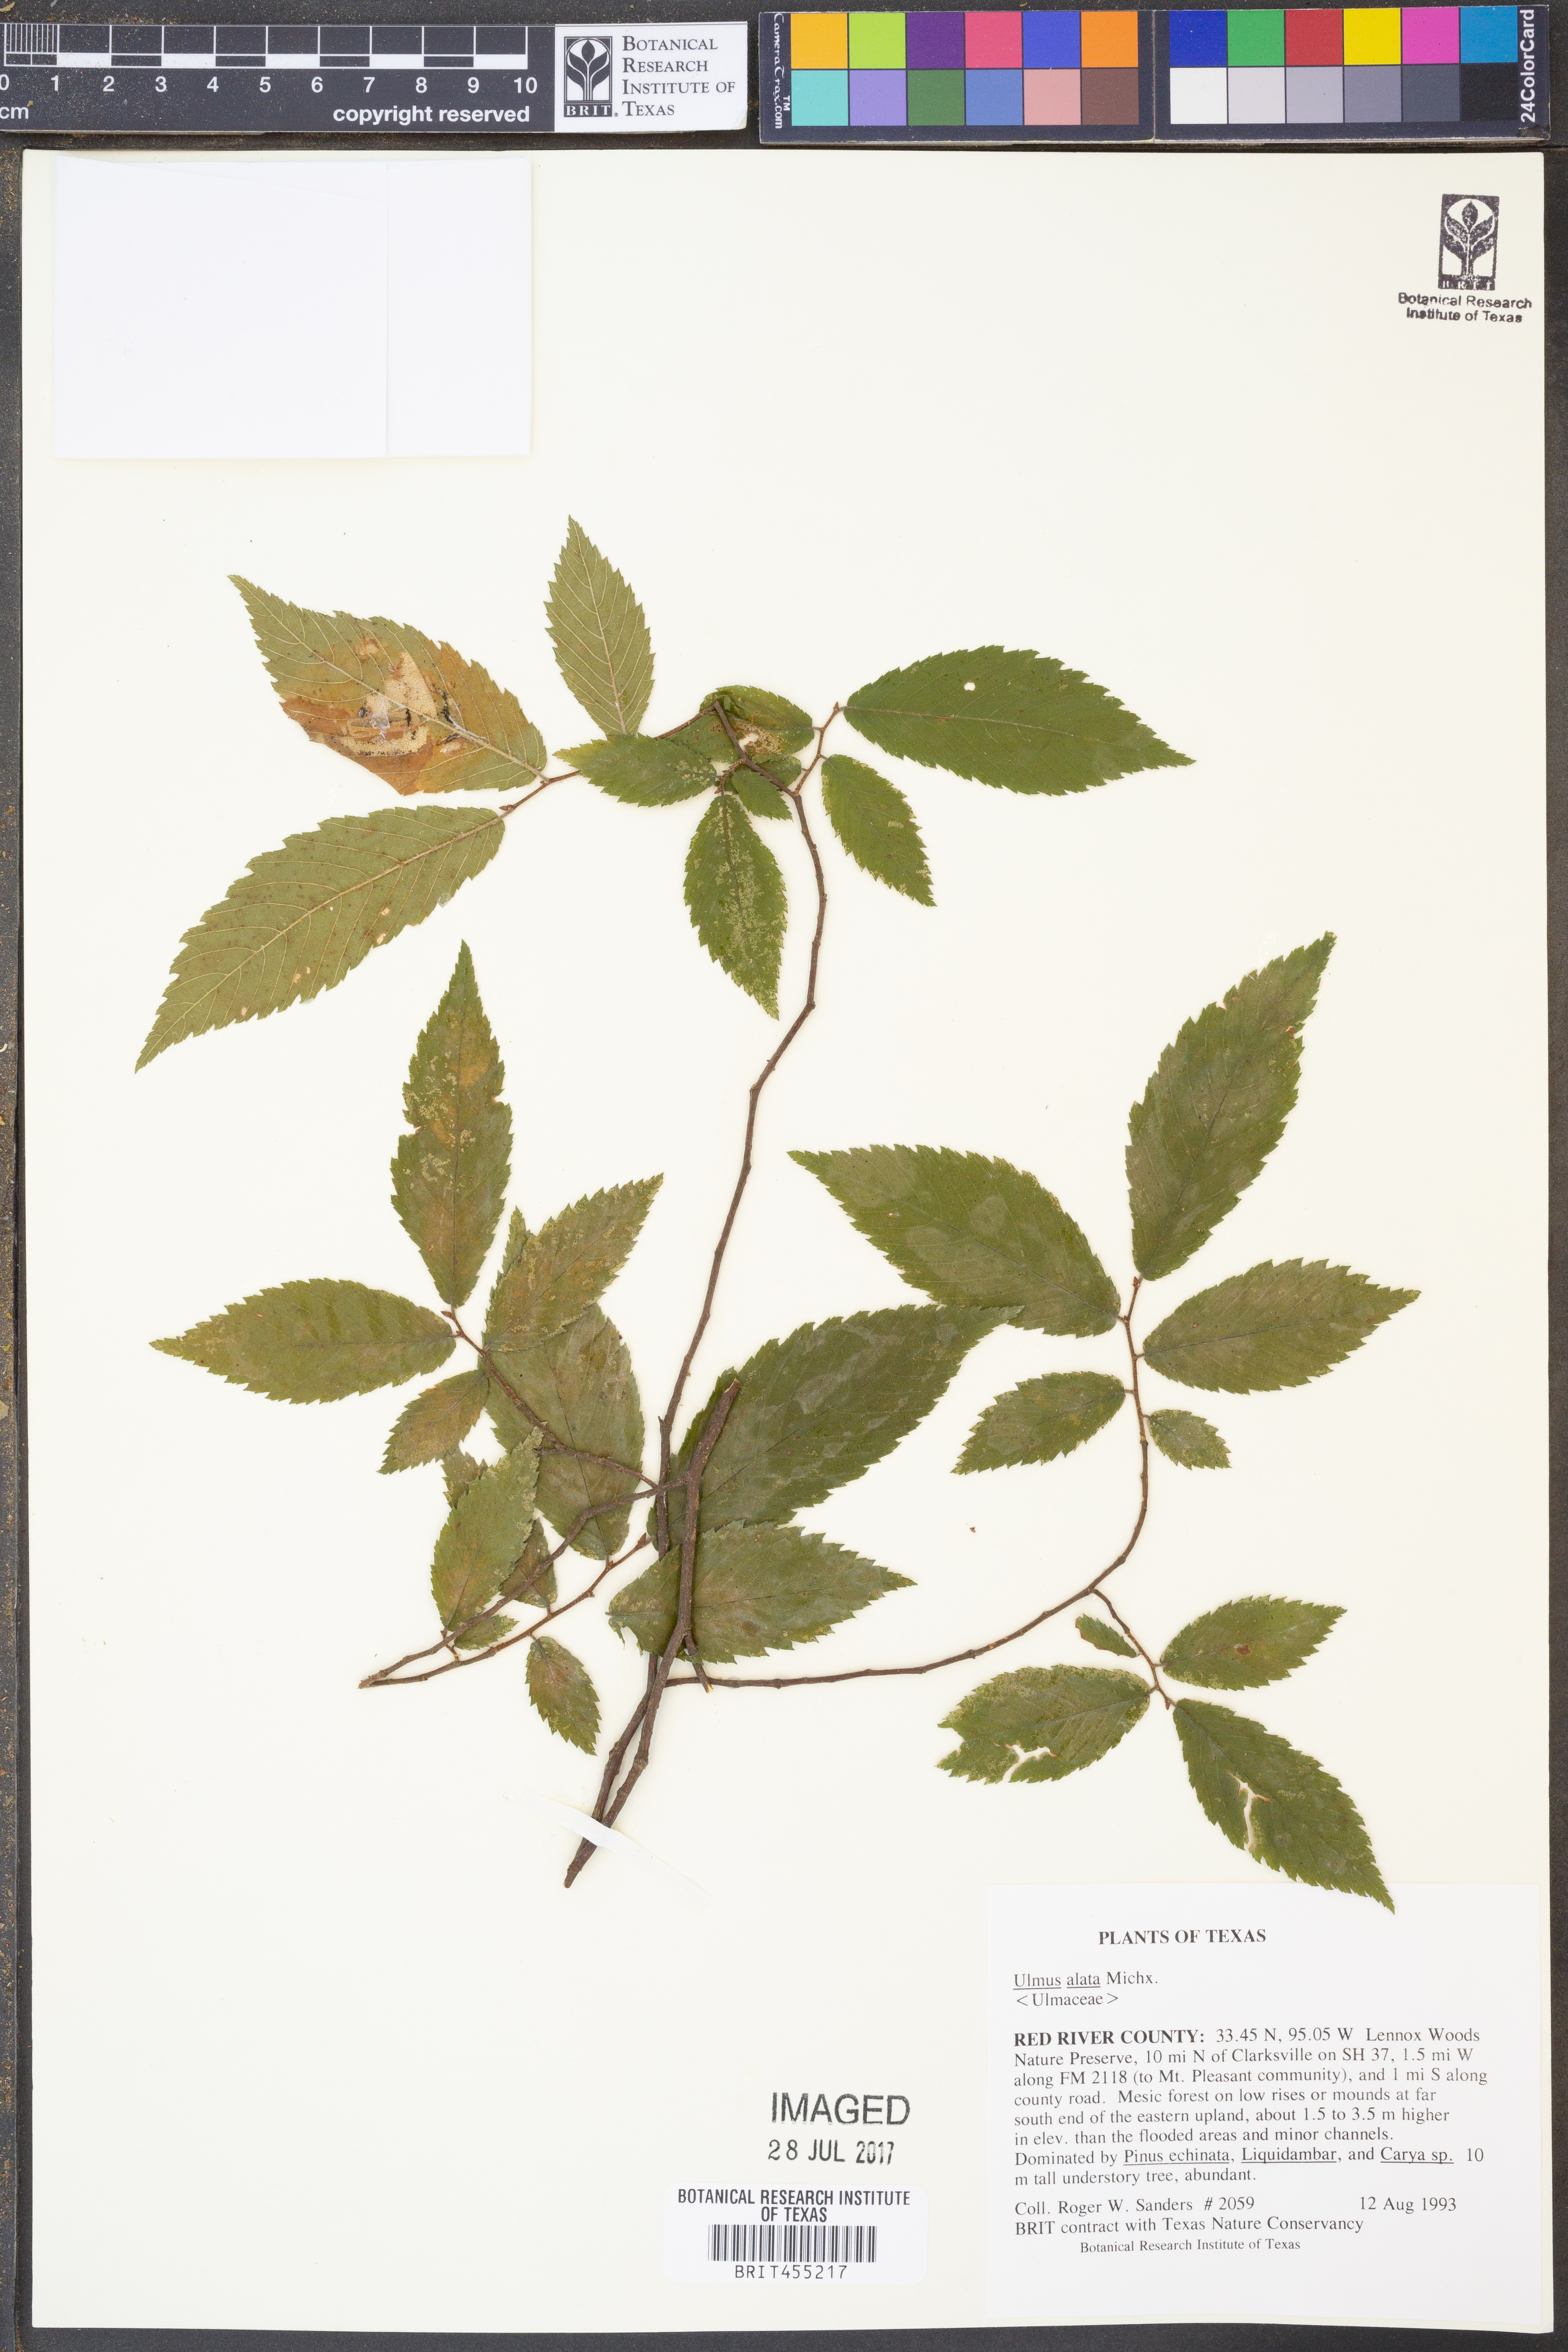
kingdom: Plantae
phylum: Tracheophyta
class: Magnoliopsida
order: Rosales
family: Ulmaceae
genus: Ulmus
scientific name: Ulmus alata
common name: Winged elm
